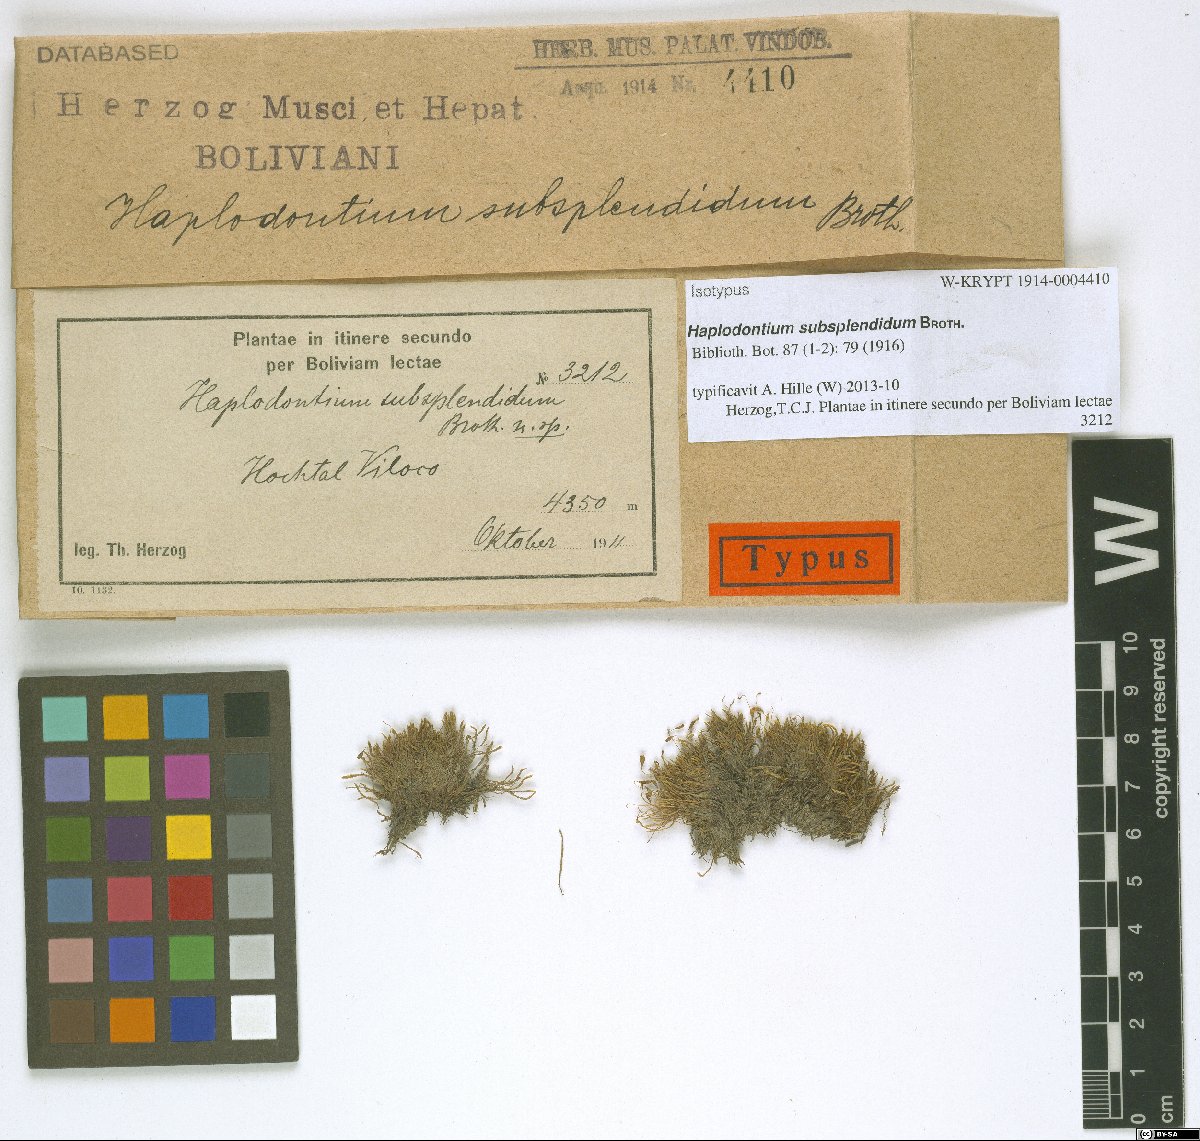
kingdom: Plantae
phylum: Bryophyta
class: Bryopsida
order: Bryales
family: Bryaceae
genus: Haplodontium
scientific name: Haplodontium subsplendidum
